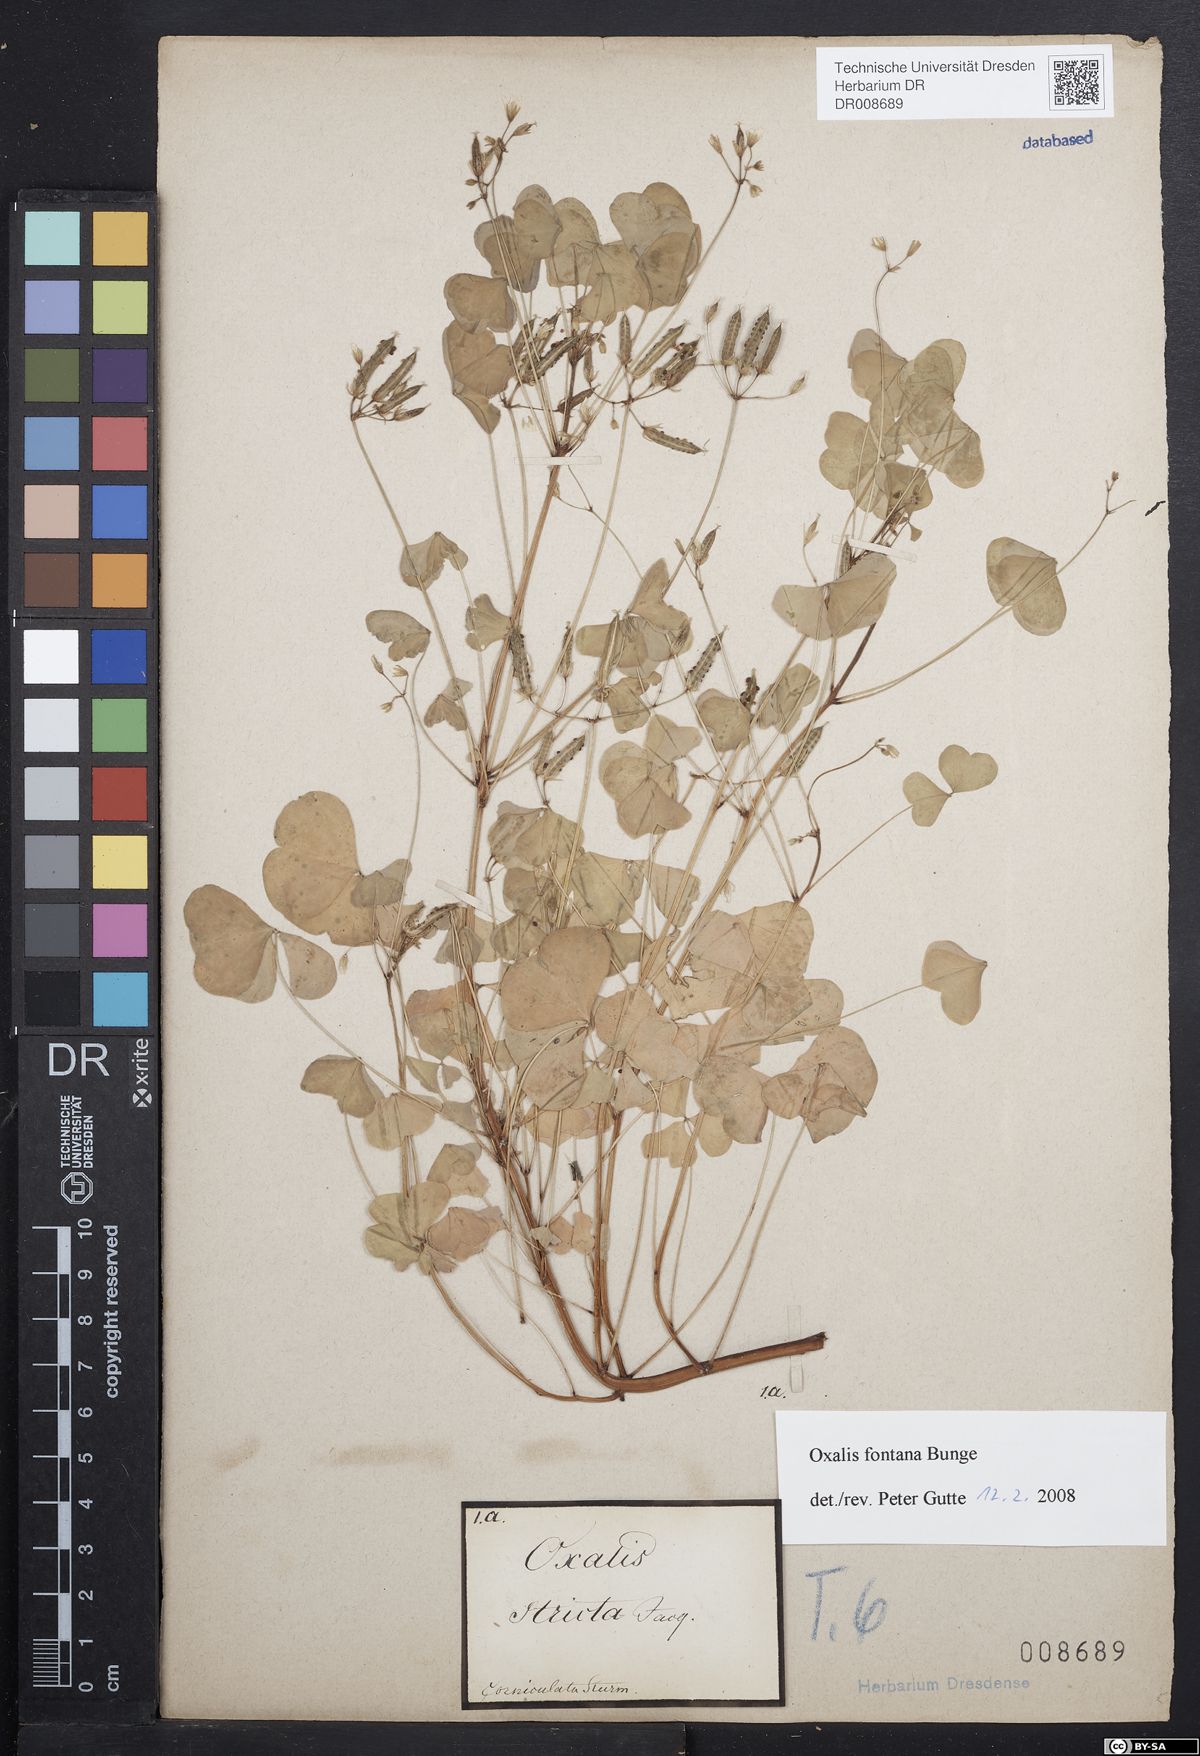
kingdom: Plantae
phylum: Tracheophyta
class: Magnoliopsida
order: Oxalidales
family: Oxalidaceae
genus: Oxalis
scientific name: Oxalis stricta
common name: Upright yellow-sorrel
